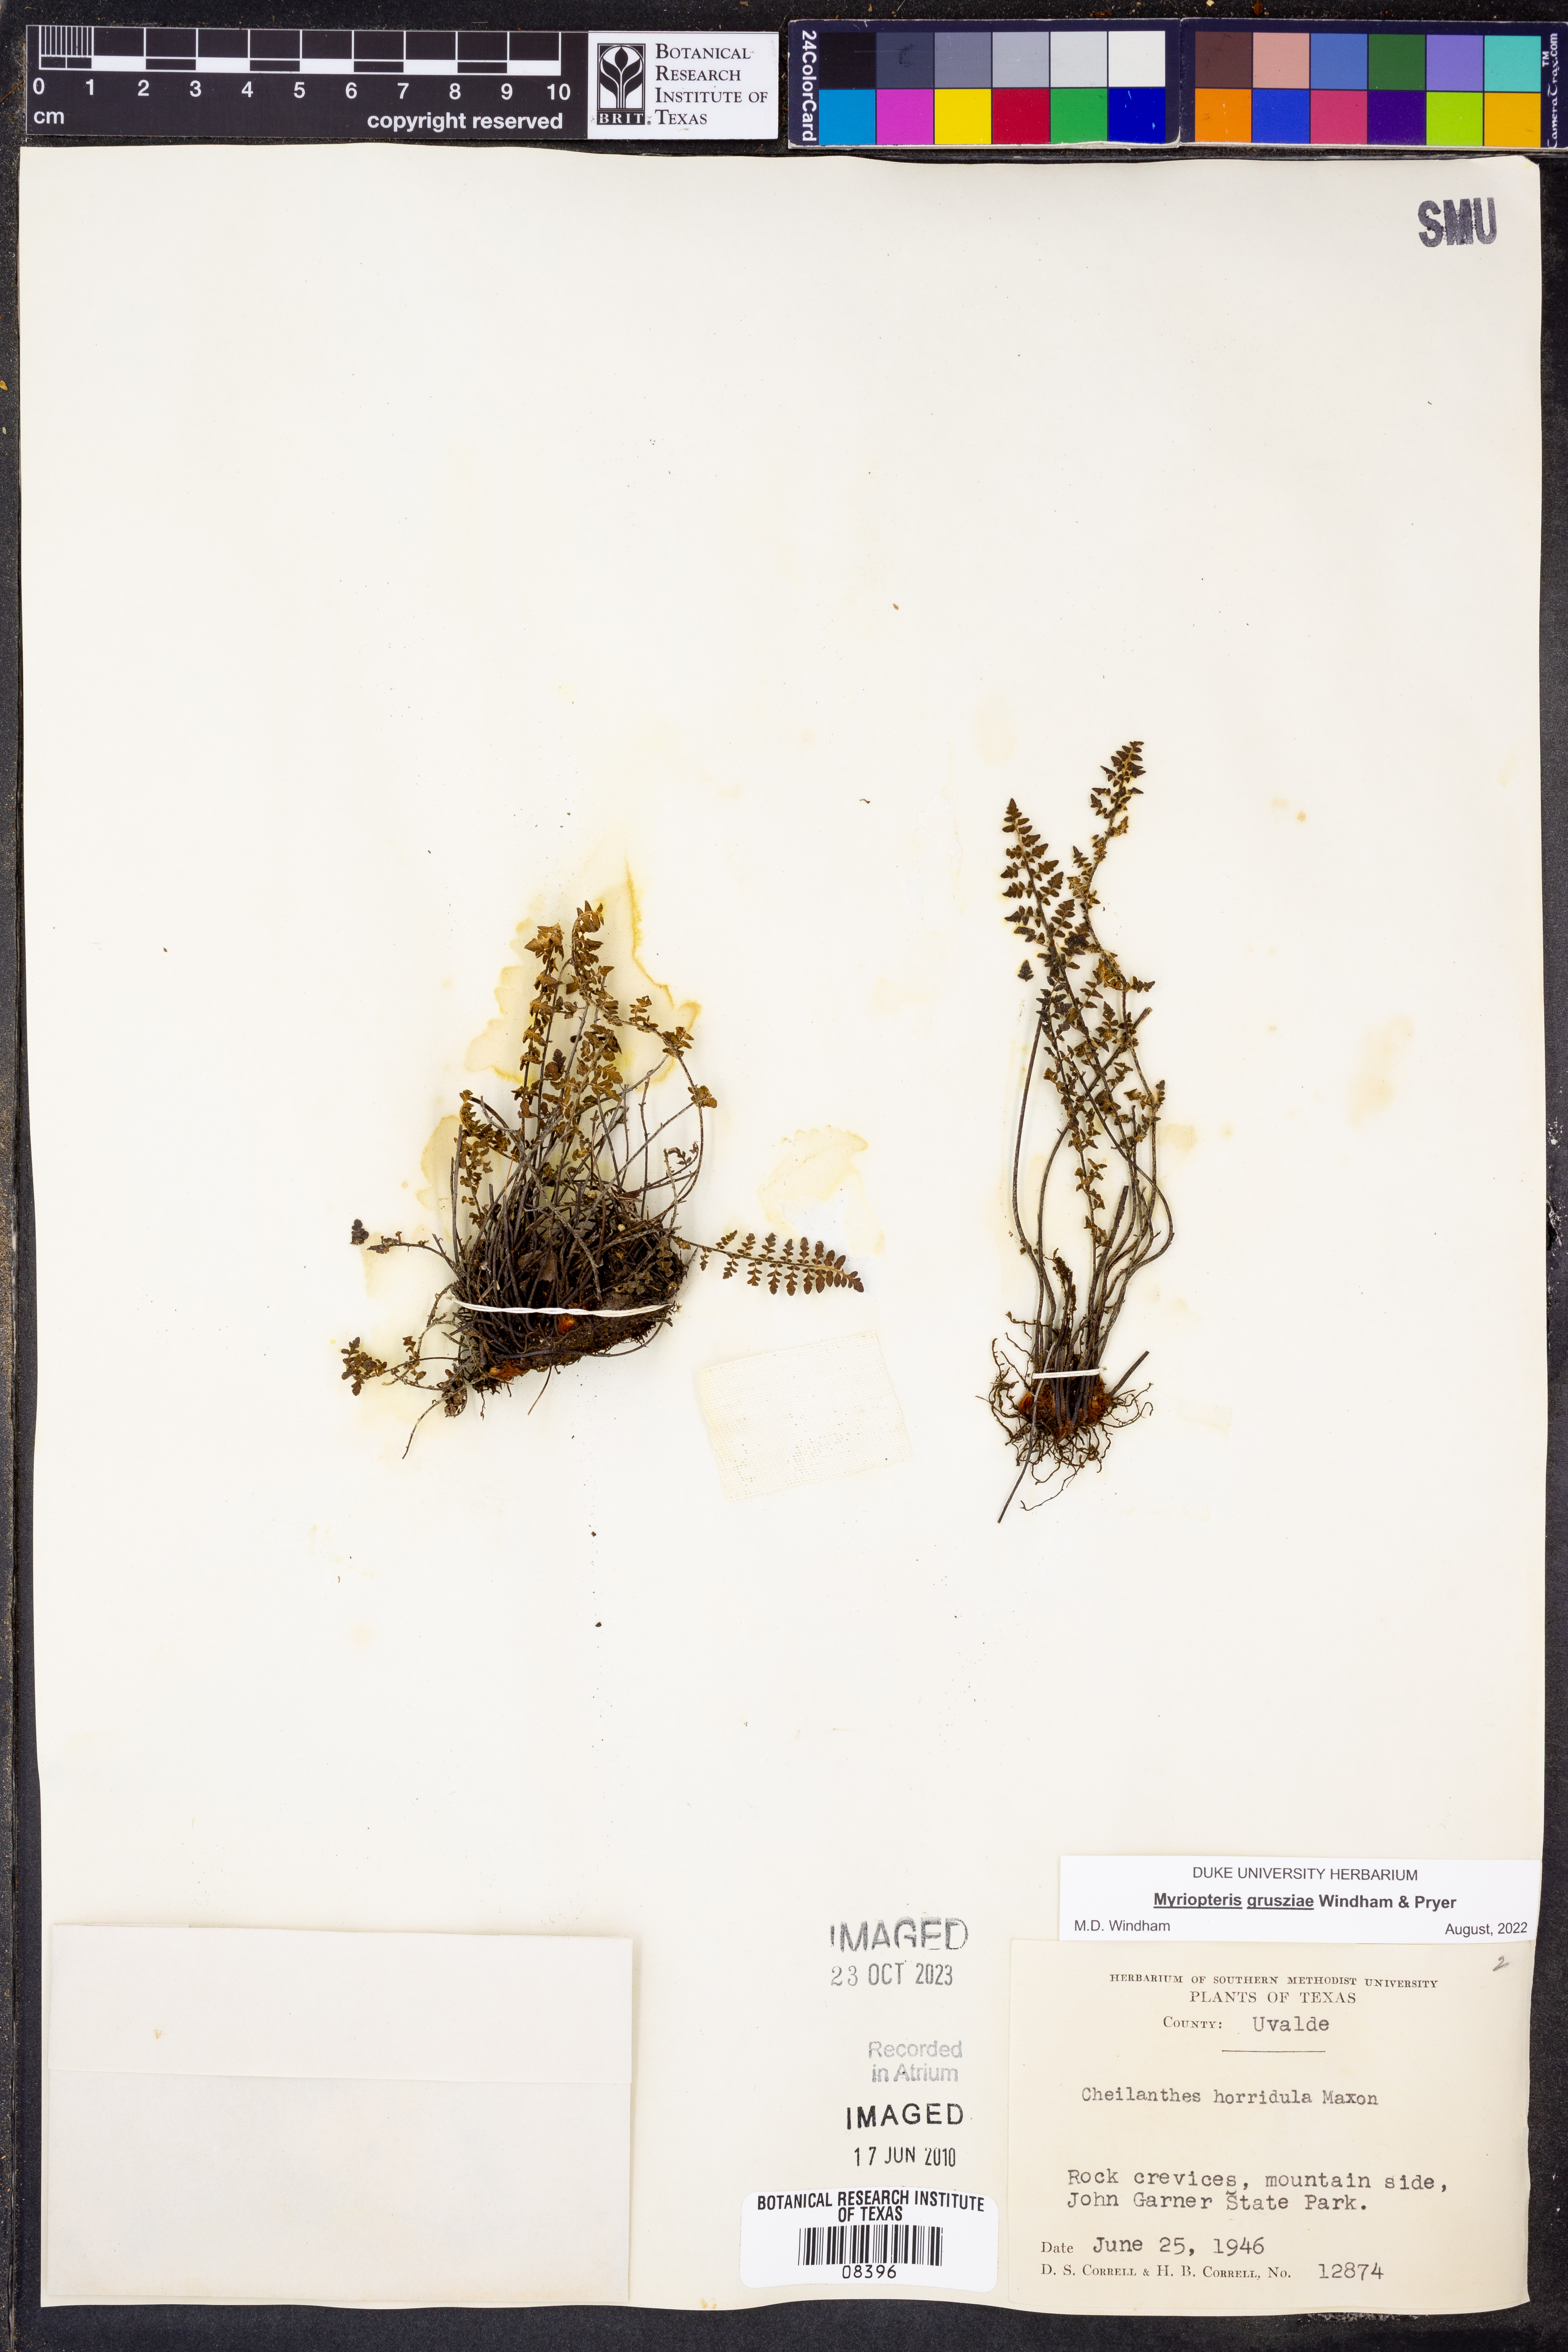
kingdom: Plantae
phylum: Tracheophyta
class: Polypodiopsida
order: Polypodiales
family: Pteridaceae
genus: Myriopteris
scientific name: Myriopteris grusziae
